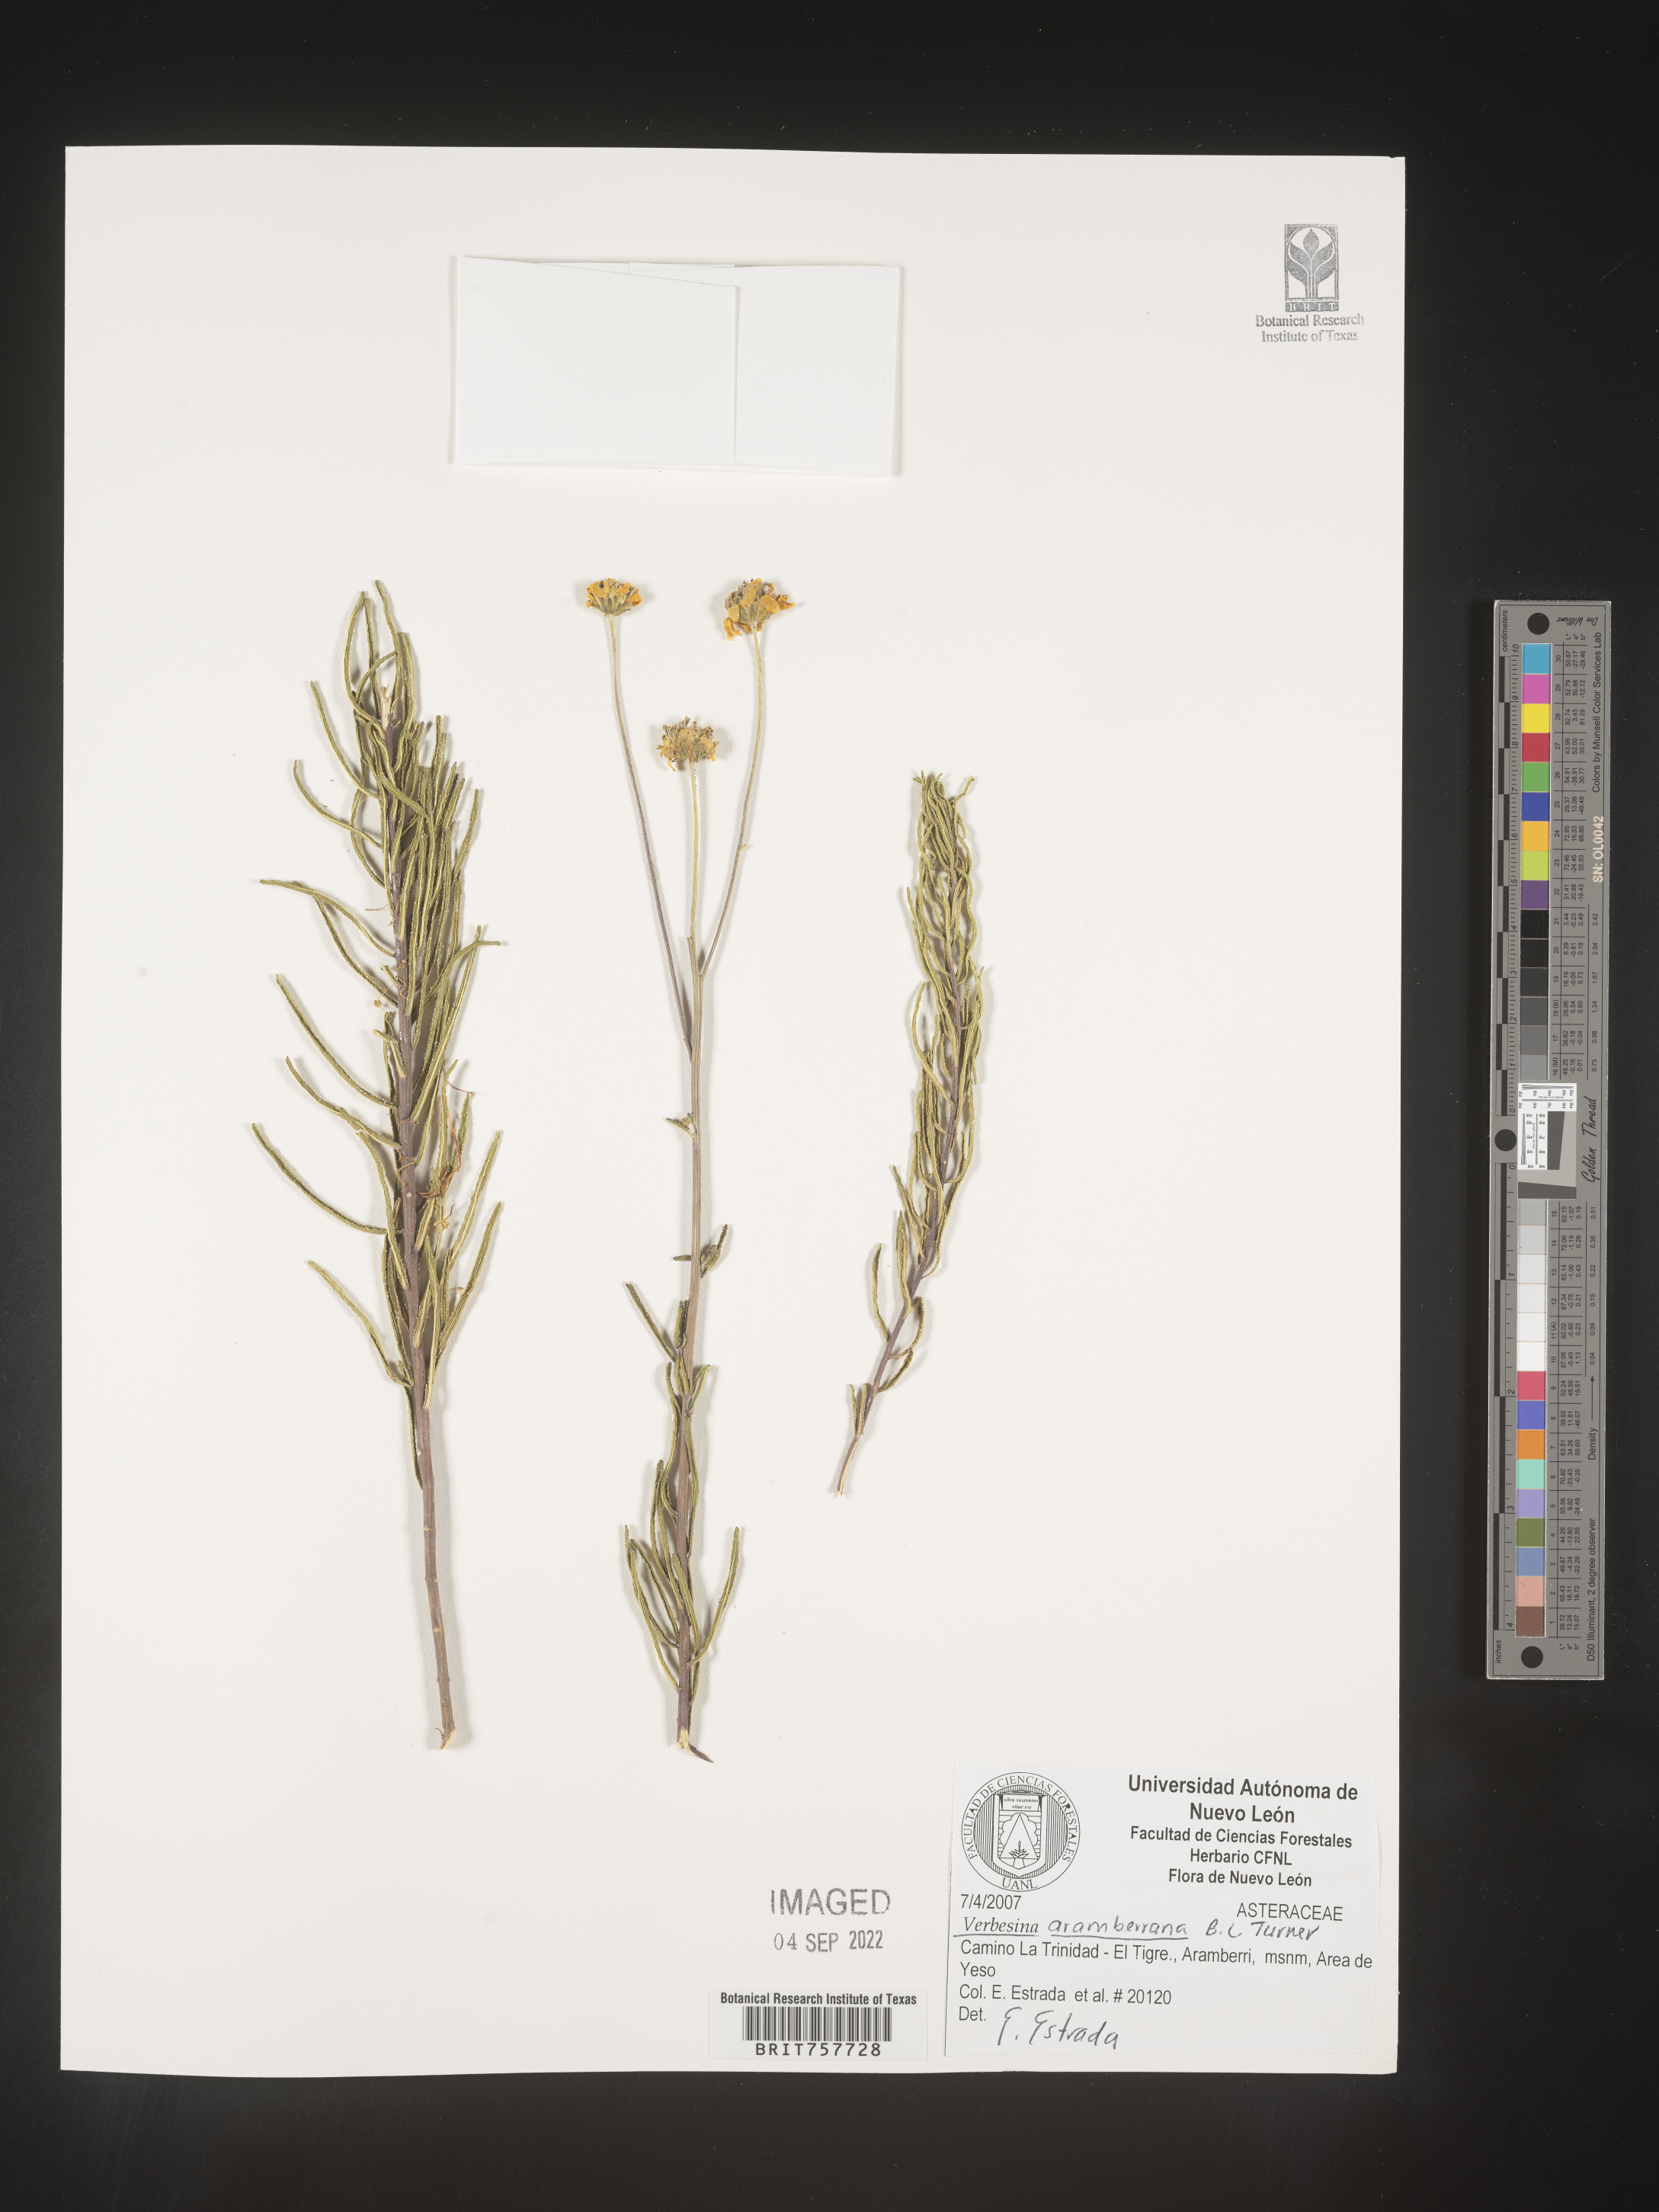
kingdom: Plantae
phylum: Tracheophyta
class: Magnoliopsida
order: Asterales
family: Asteraceae
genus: Verbesina
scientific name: Verbesina
